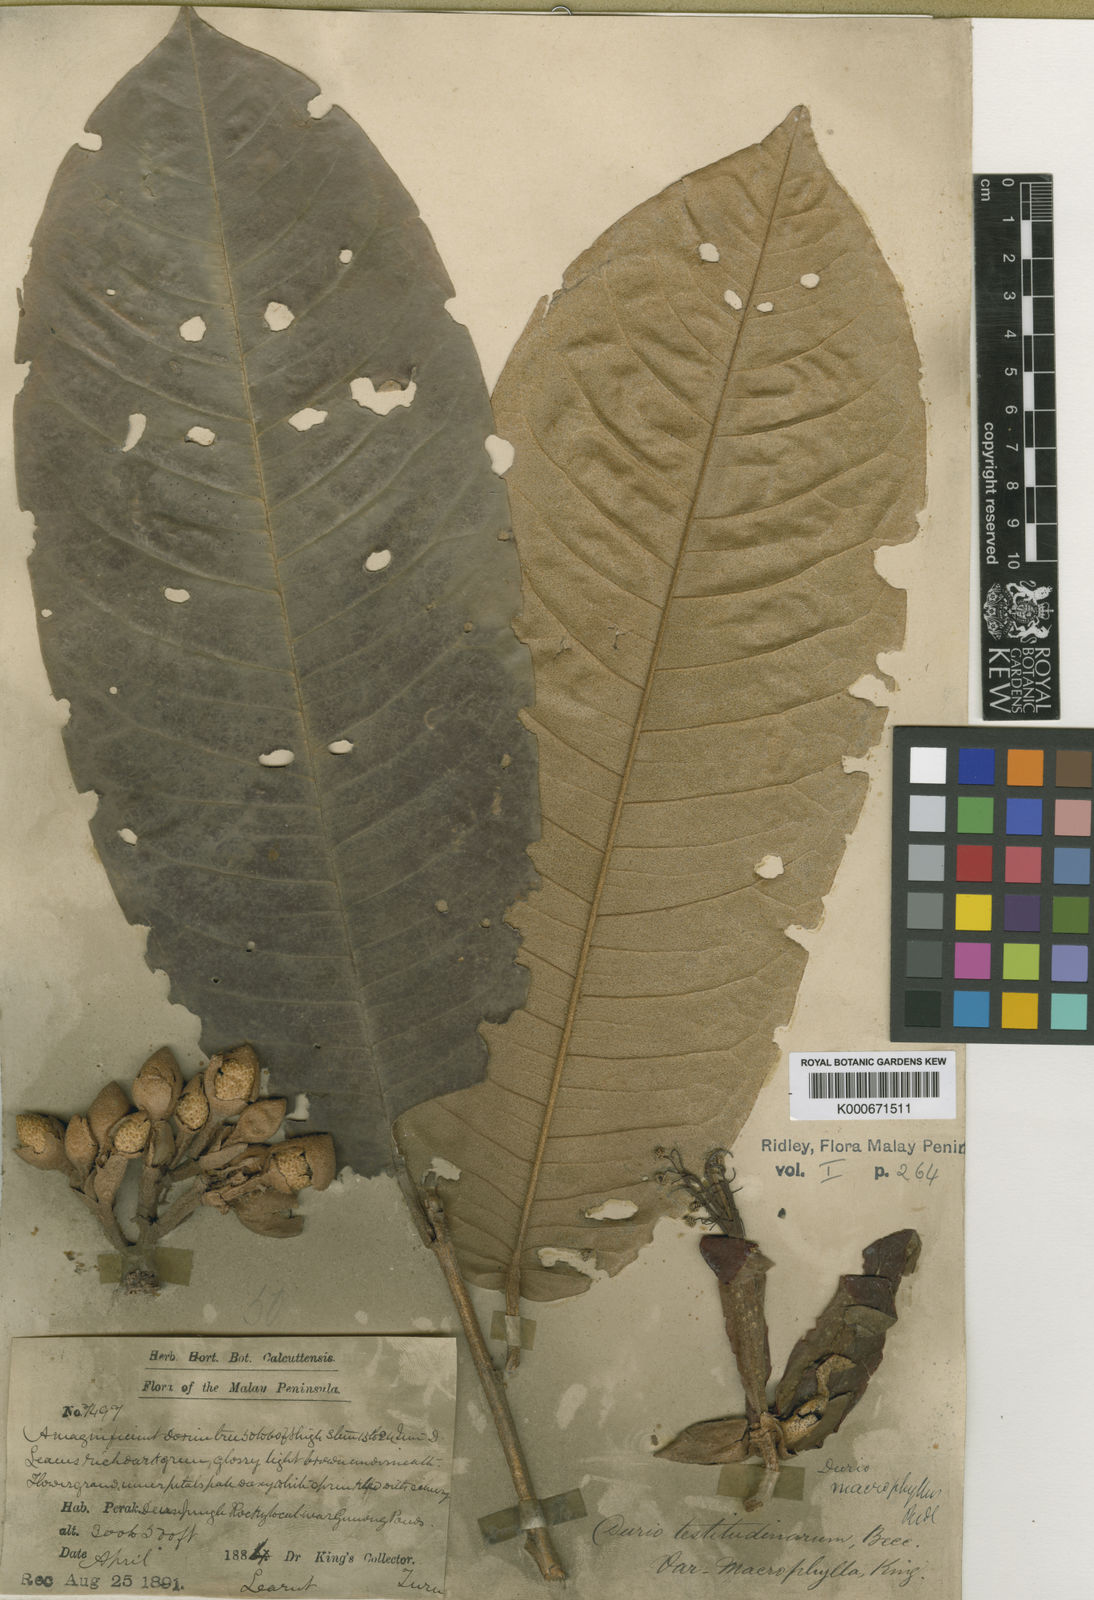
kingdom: Plantae
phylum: Tracheophyta
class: Magnoliopsida
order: Malvales
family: Malvaceae
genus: Durio
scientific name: Durio macrophyllus
